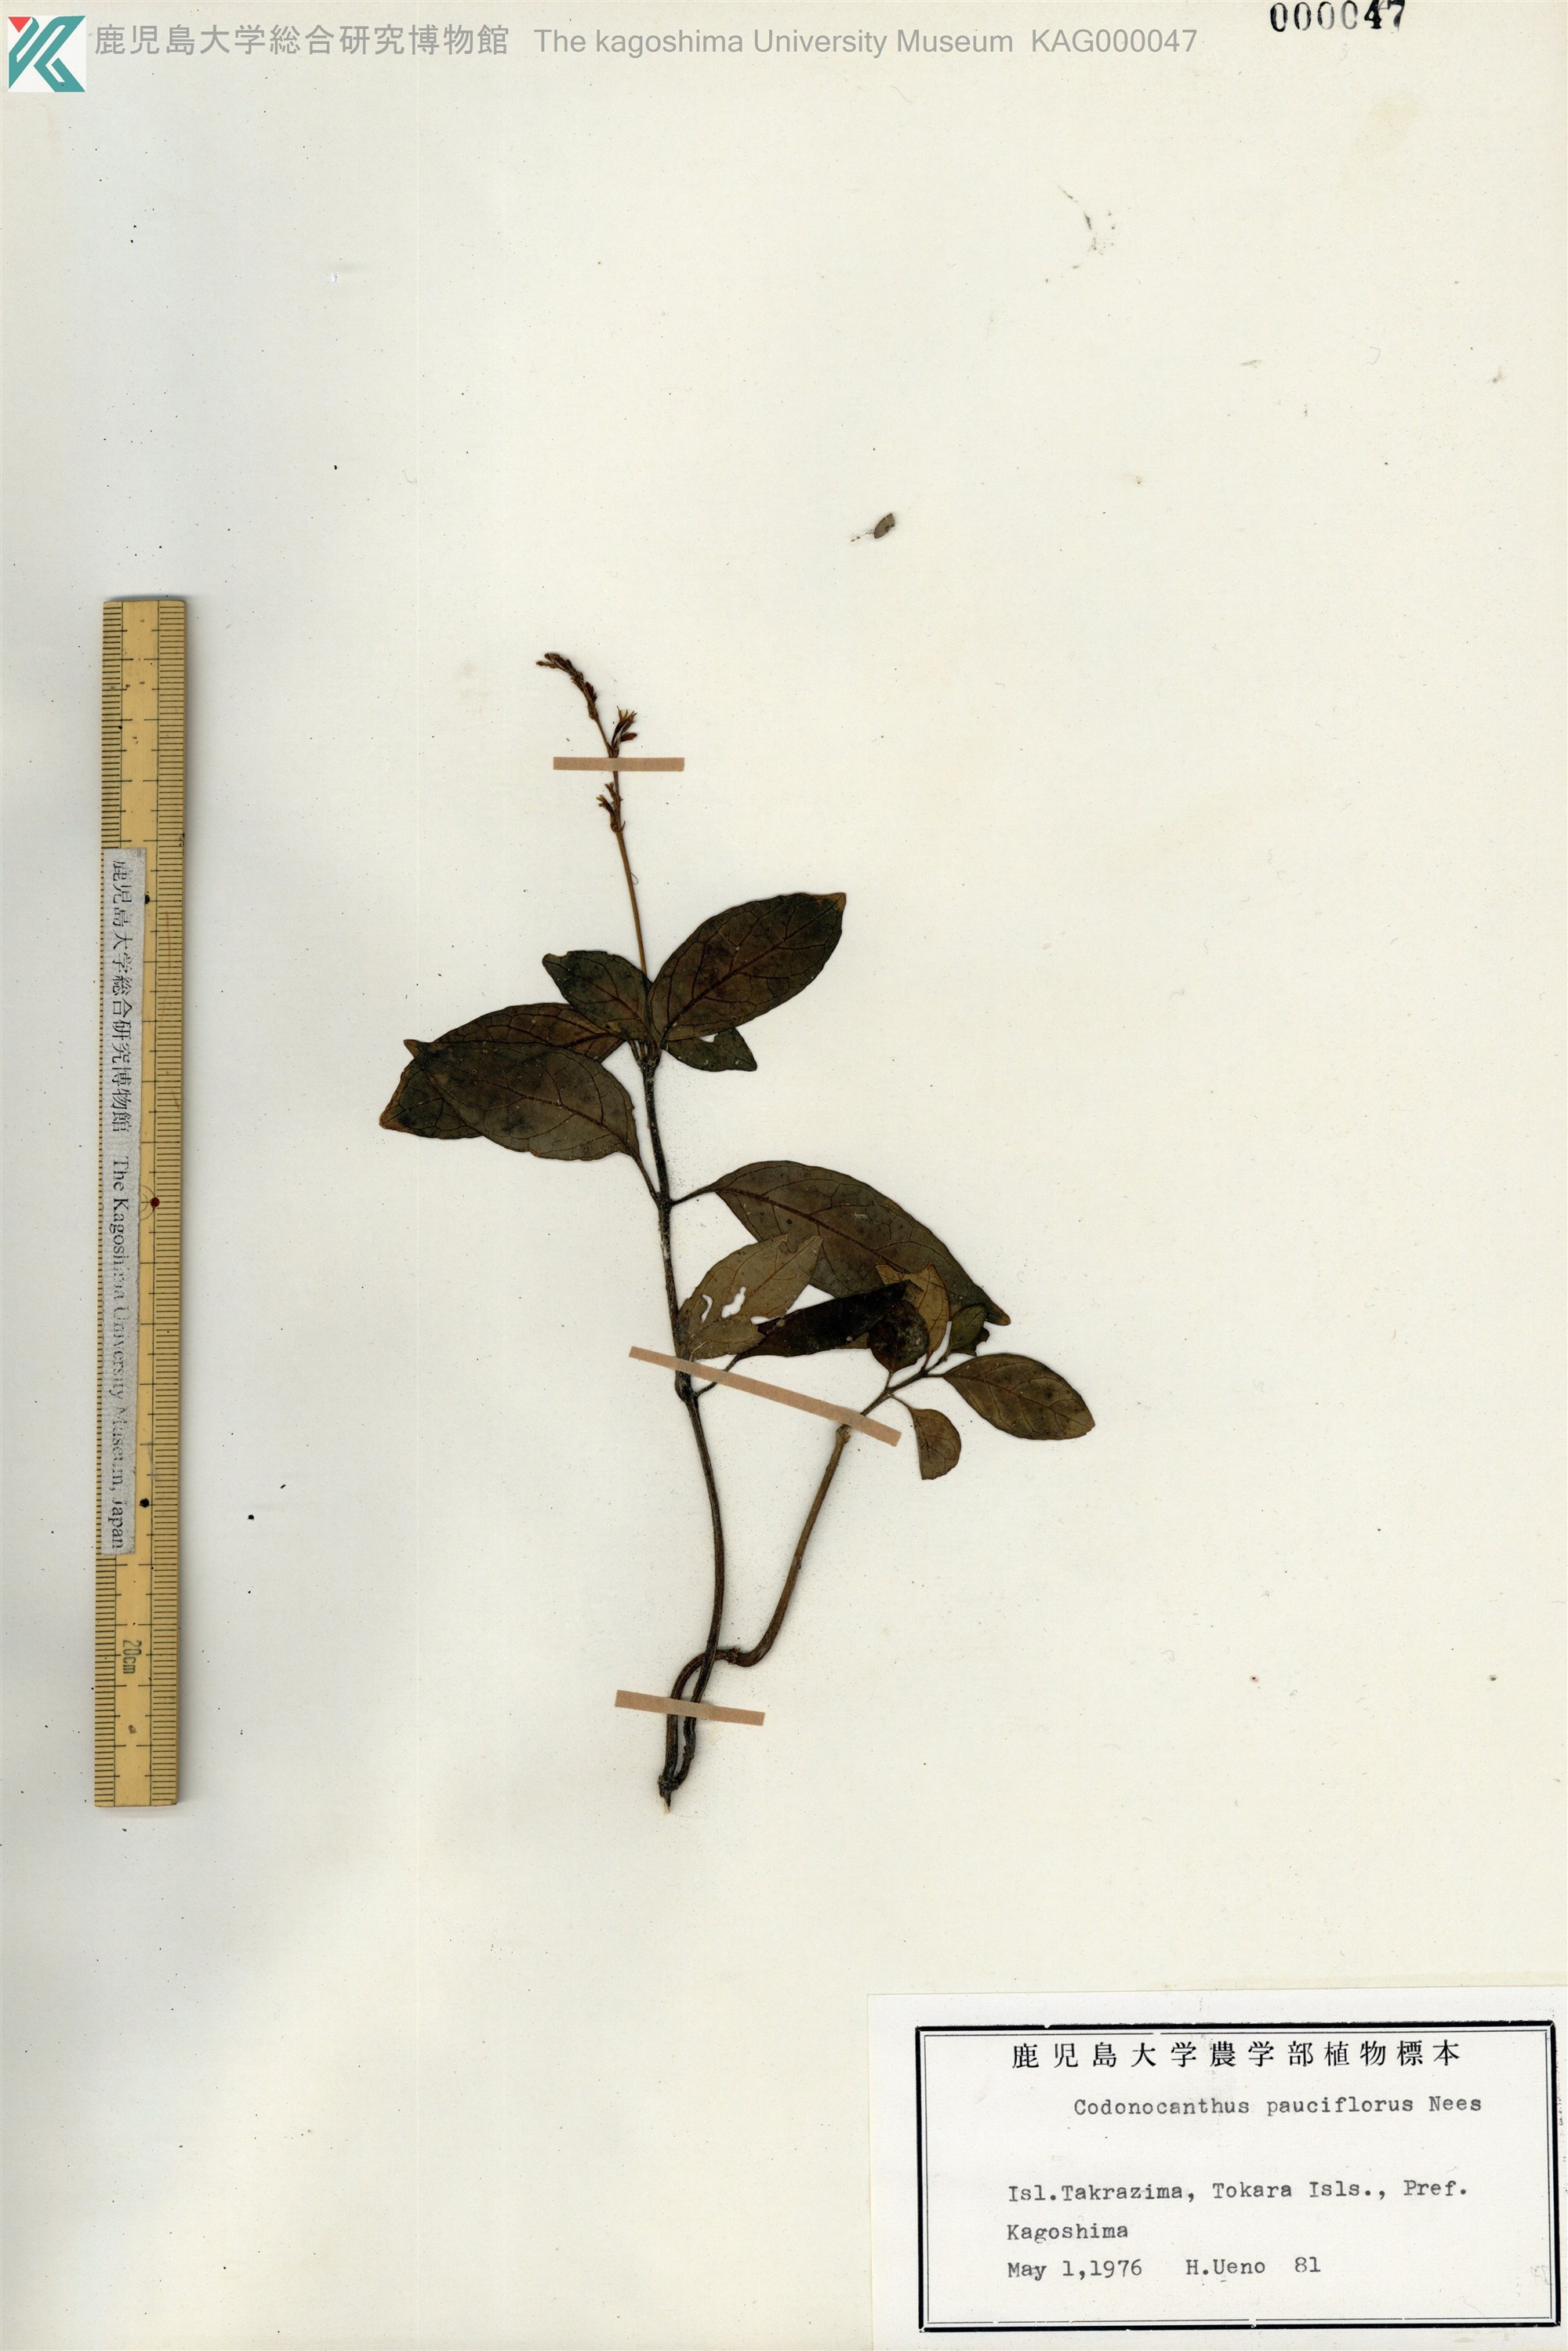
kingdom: Plantae
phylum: Tracheophyta
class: Magnoliopsida
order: Lamiales
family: Acanthaceae
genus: Codonacanthus
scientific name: Codonacanthus pauciflorus
